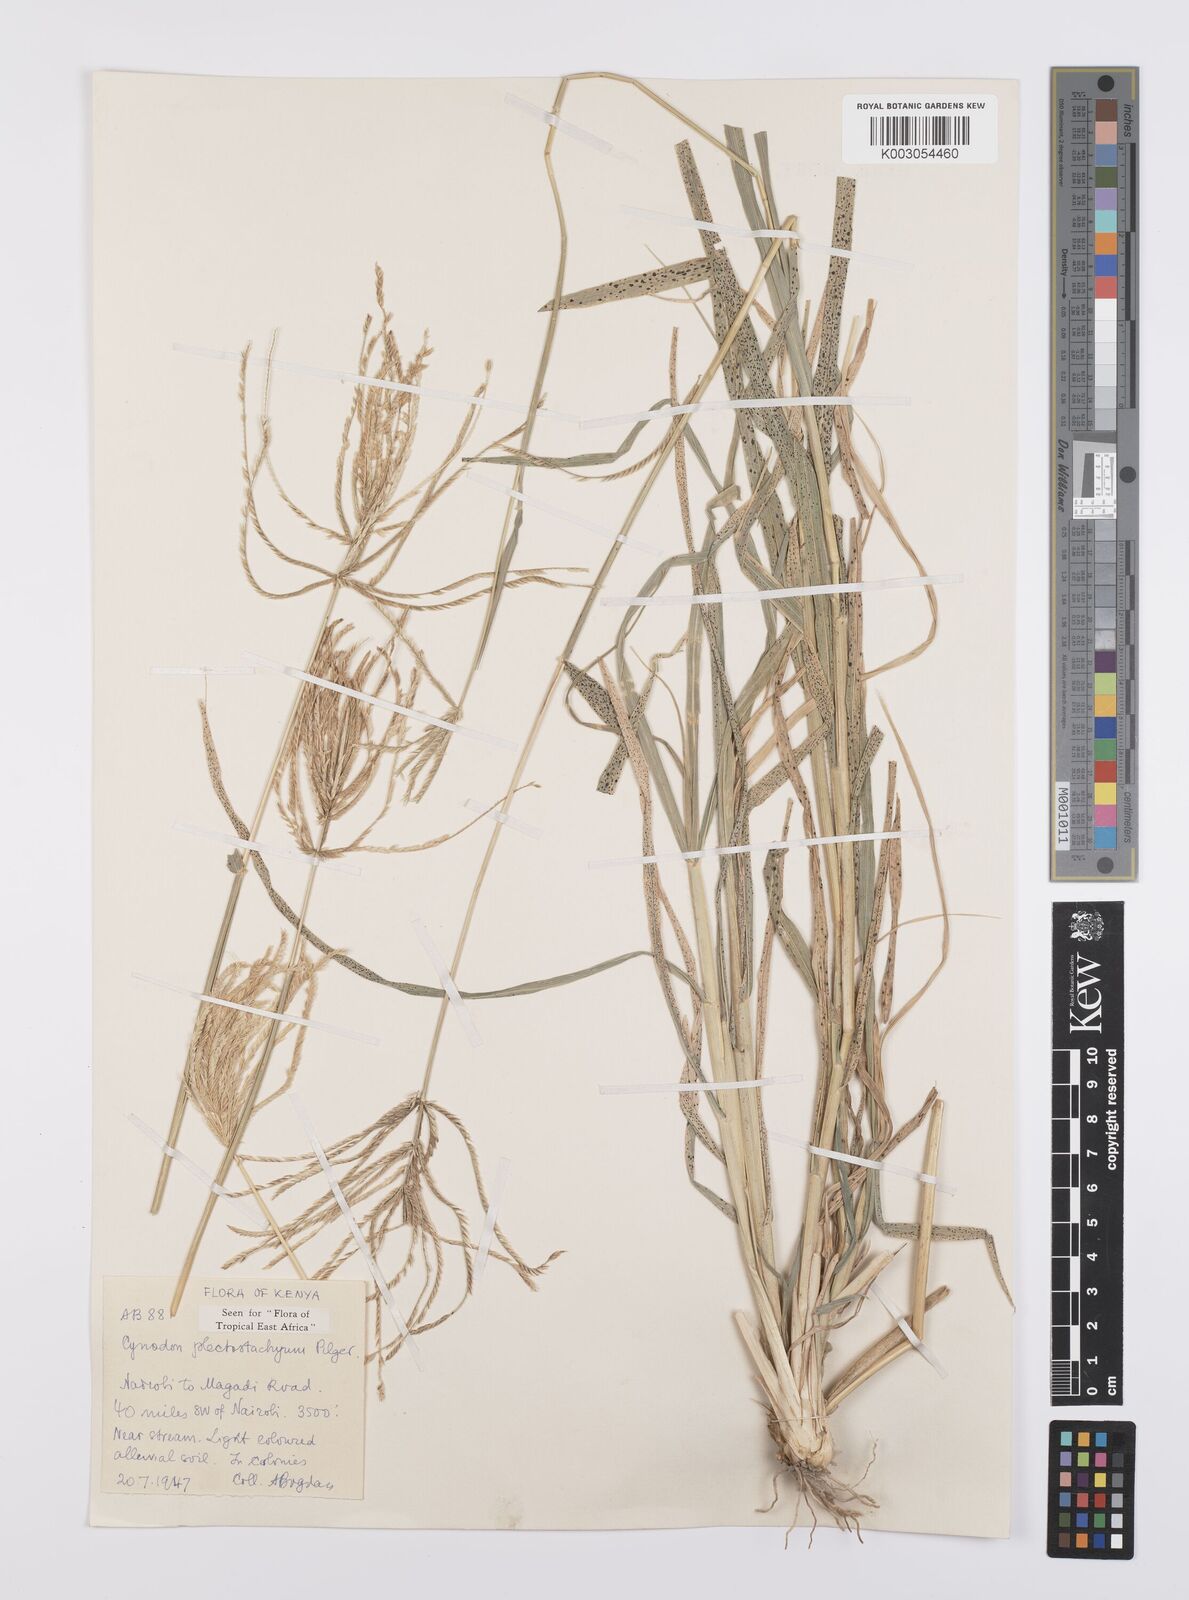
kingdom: Plantae
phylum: Tracheophyta
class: Liliopsida
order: Poales
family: Poaceae
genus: Cynodon
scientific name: Cynodon plectostachyus
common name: Stargrass
